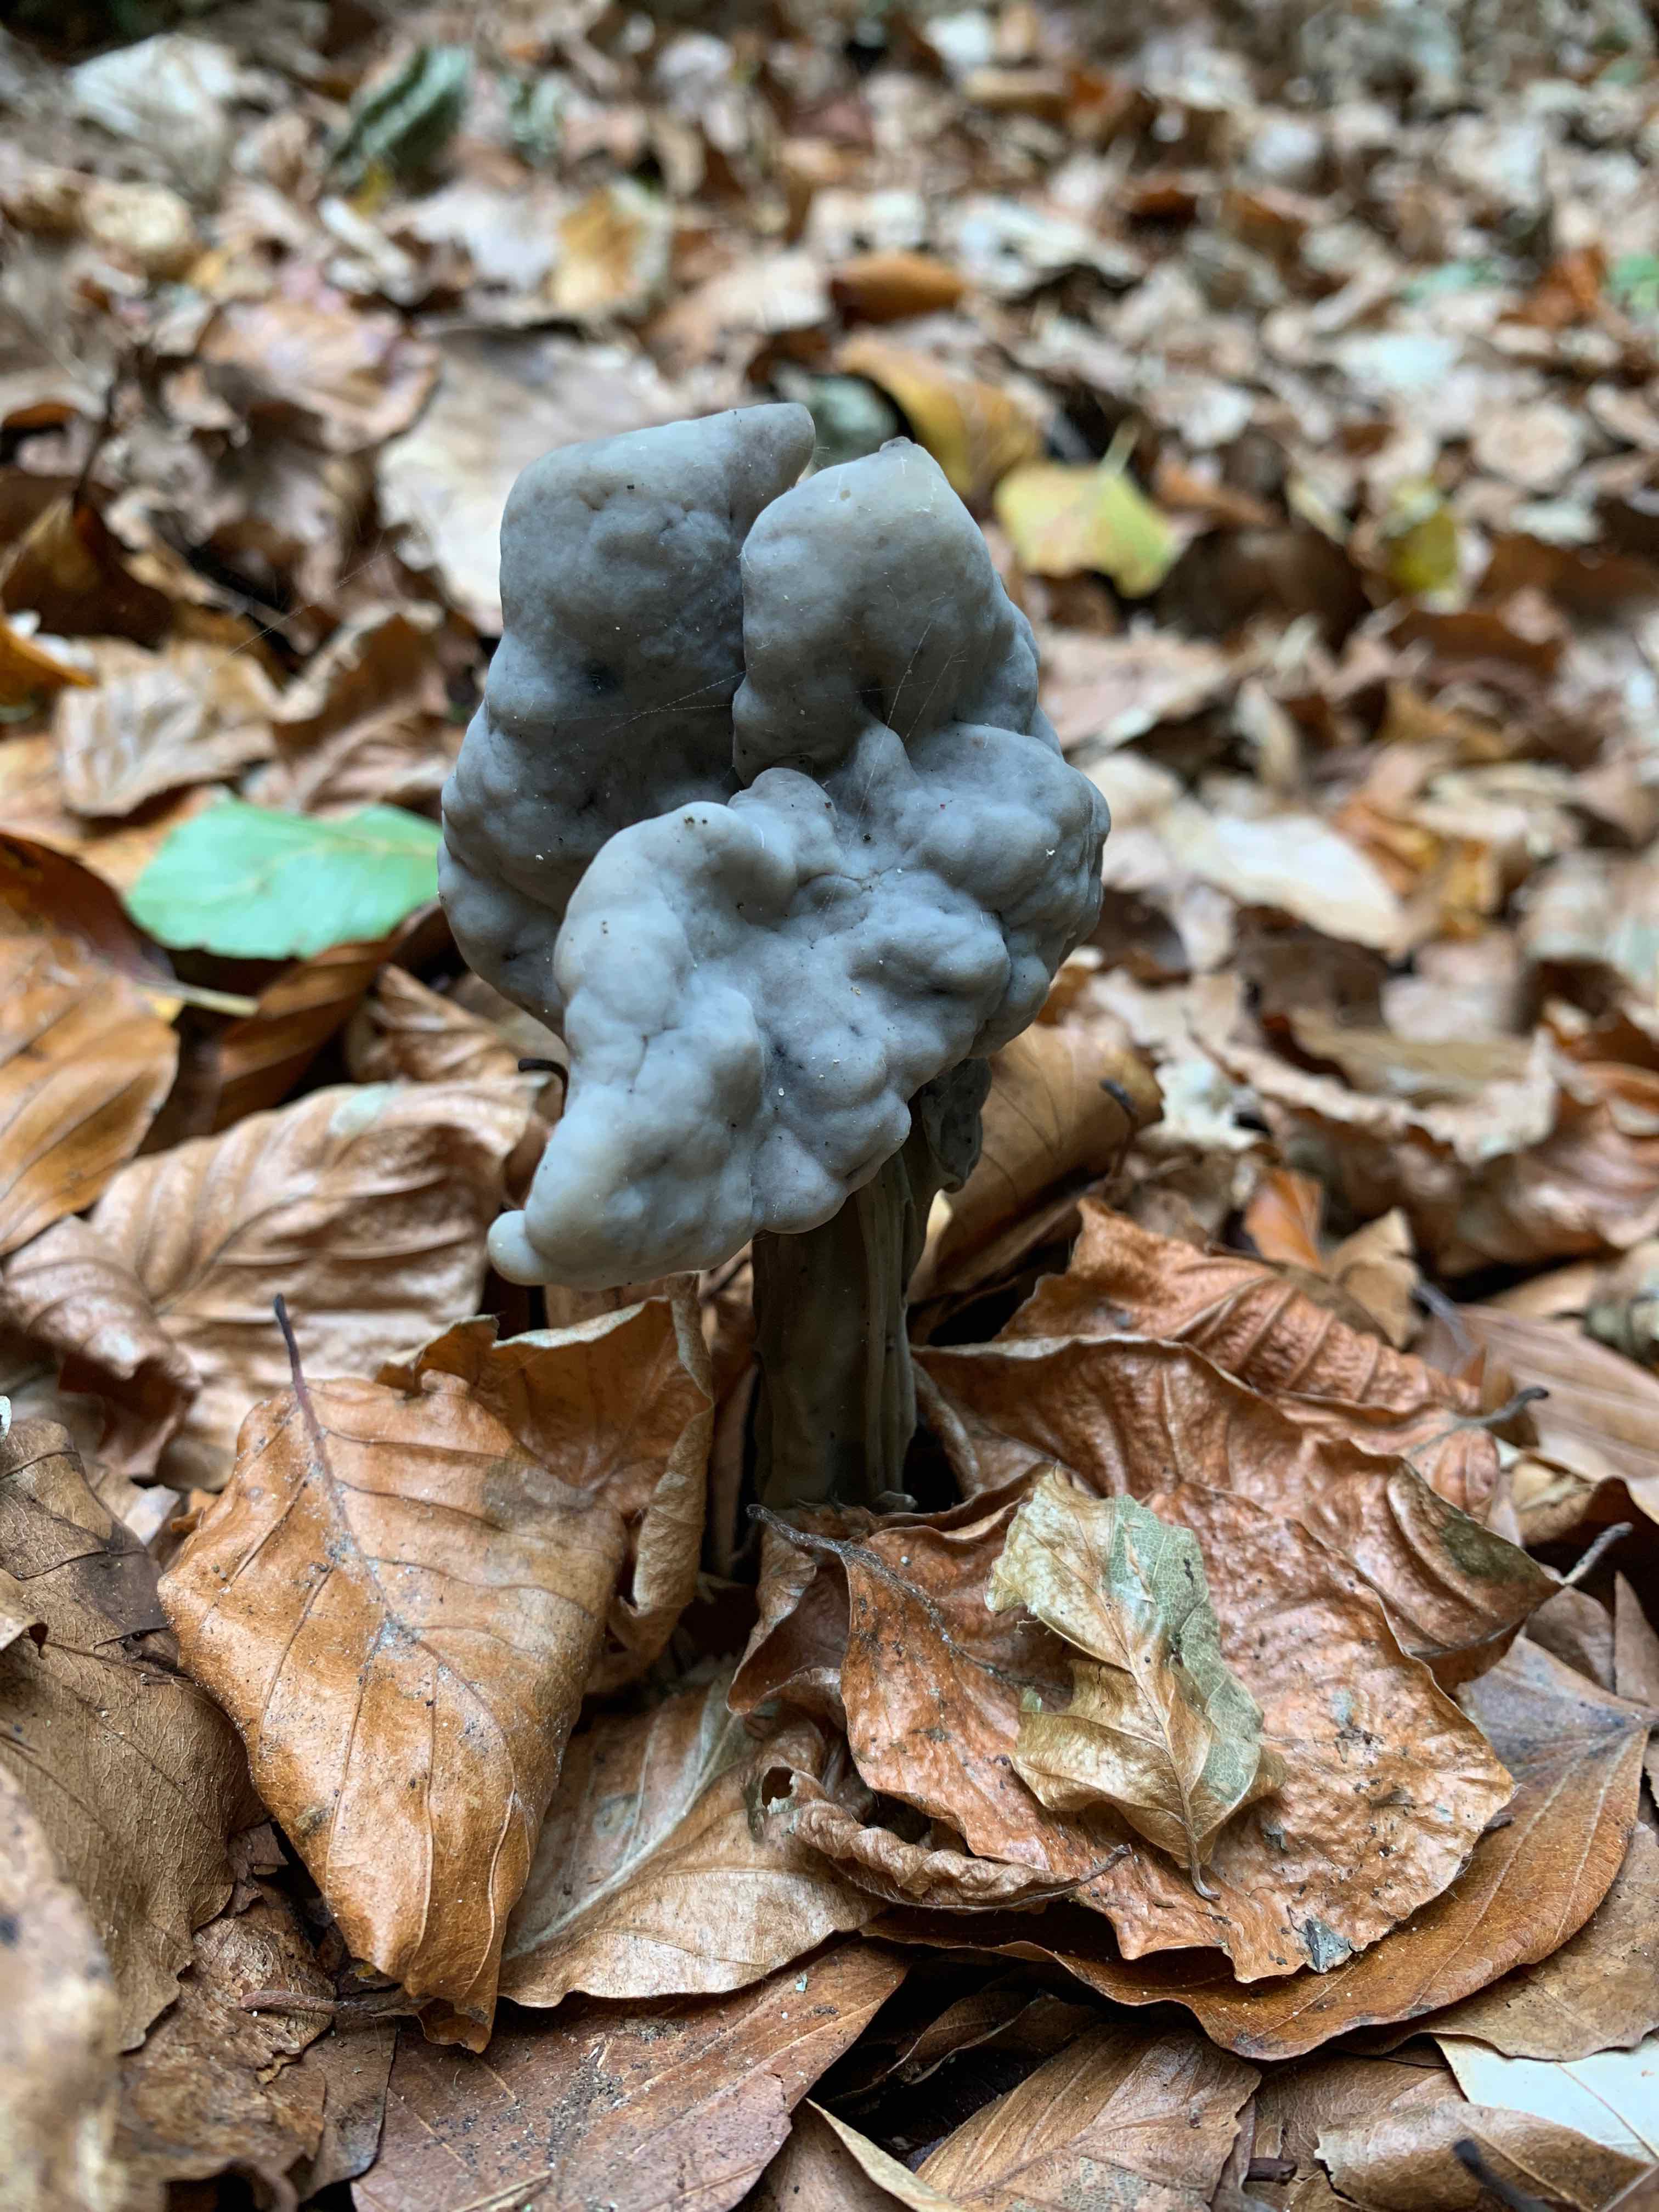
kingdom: Fungi
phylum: Ascomycota
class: Pezizomycetes
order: Pezizales
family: Helvellaceae
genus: Helvella
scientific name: Helvella lacunosa
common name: grubet foldhat
